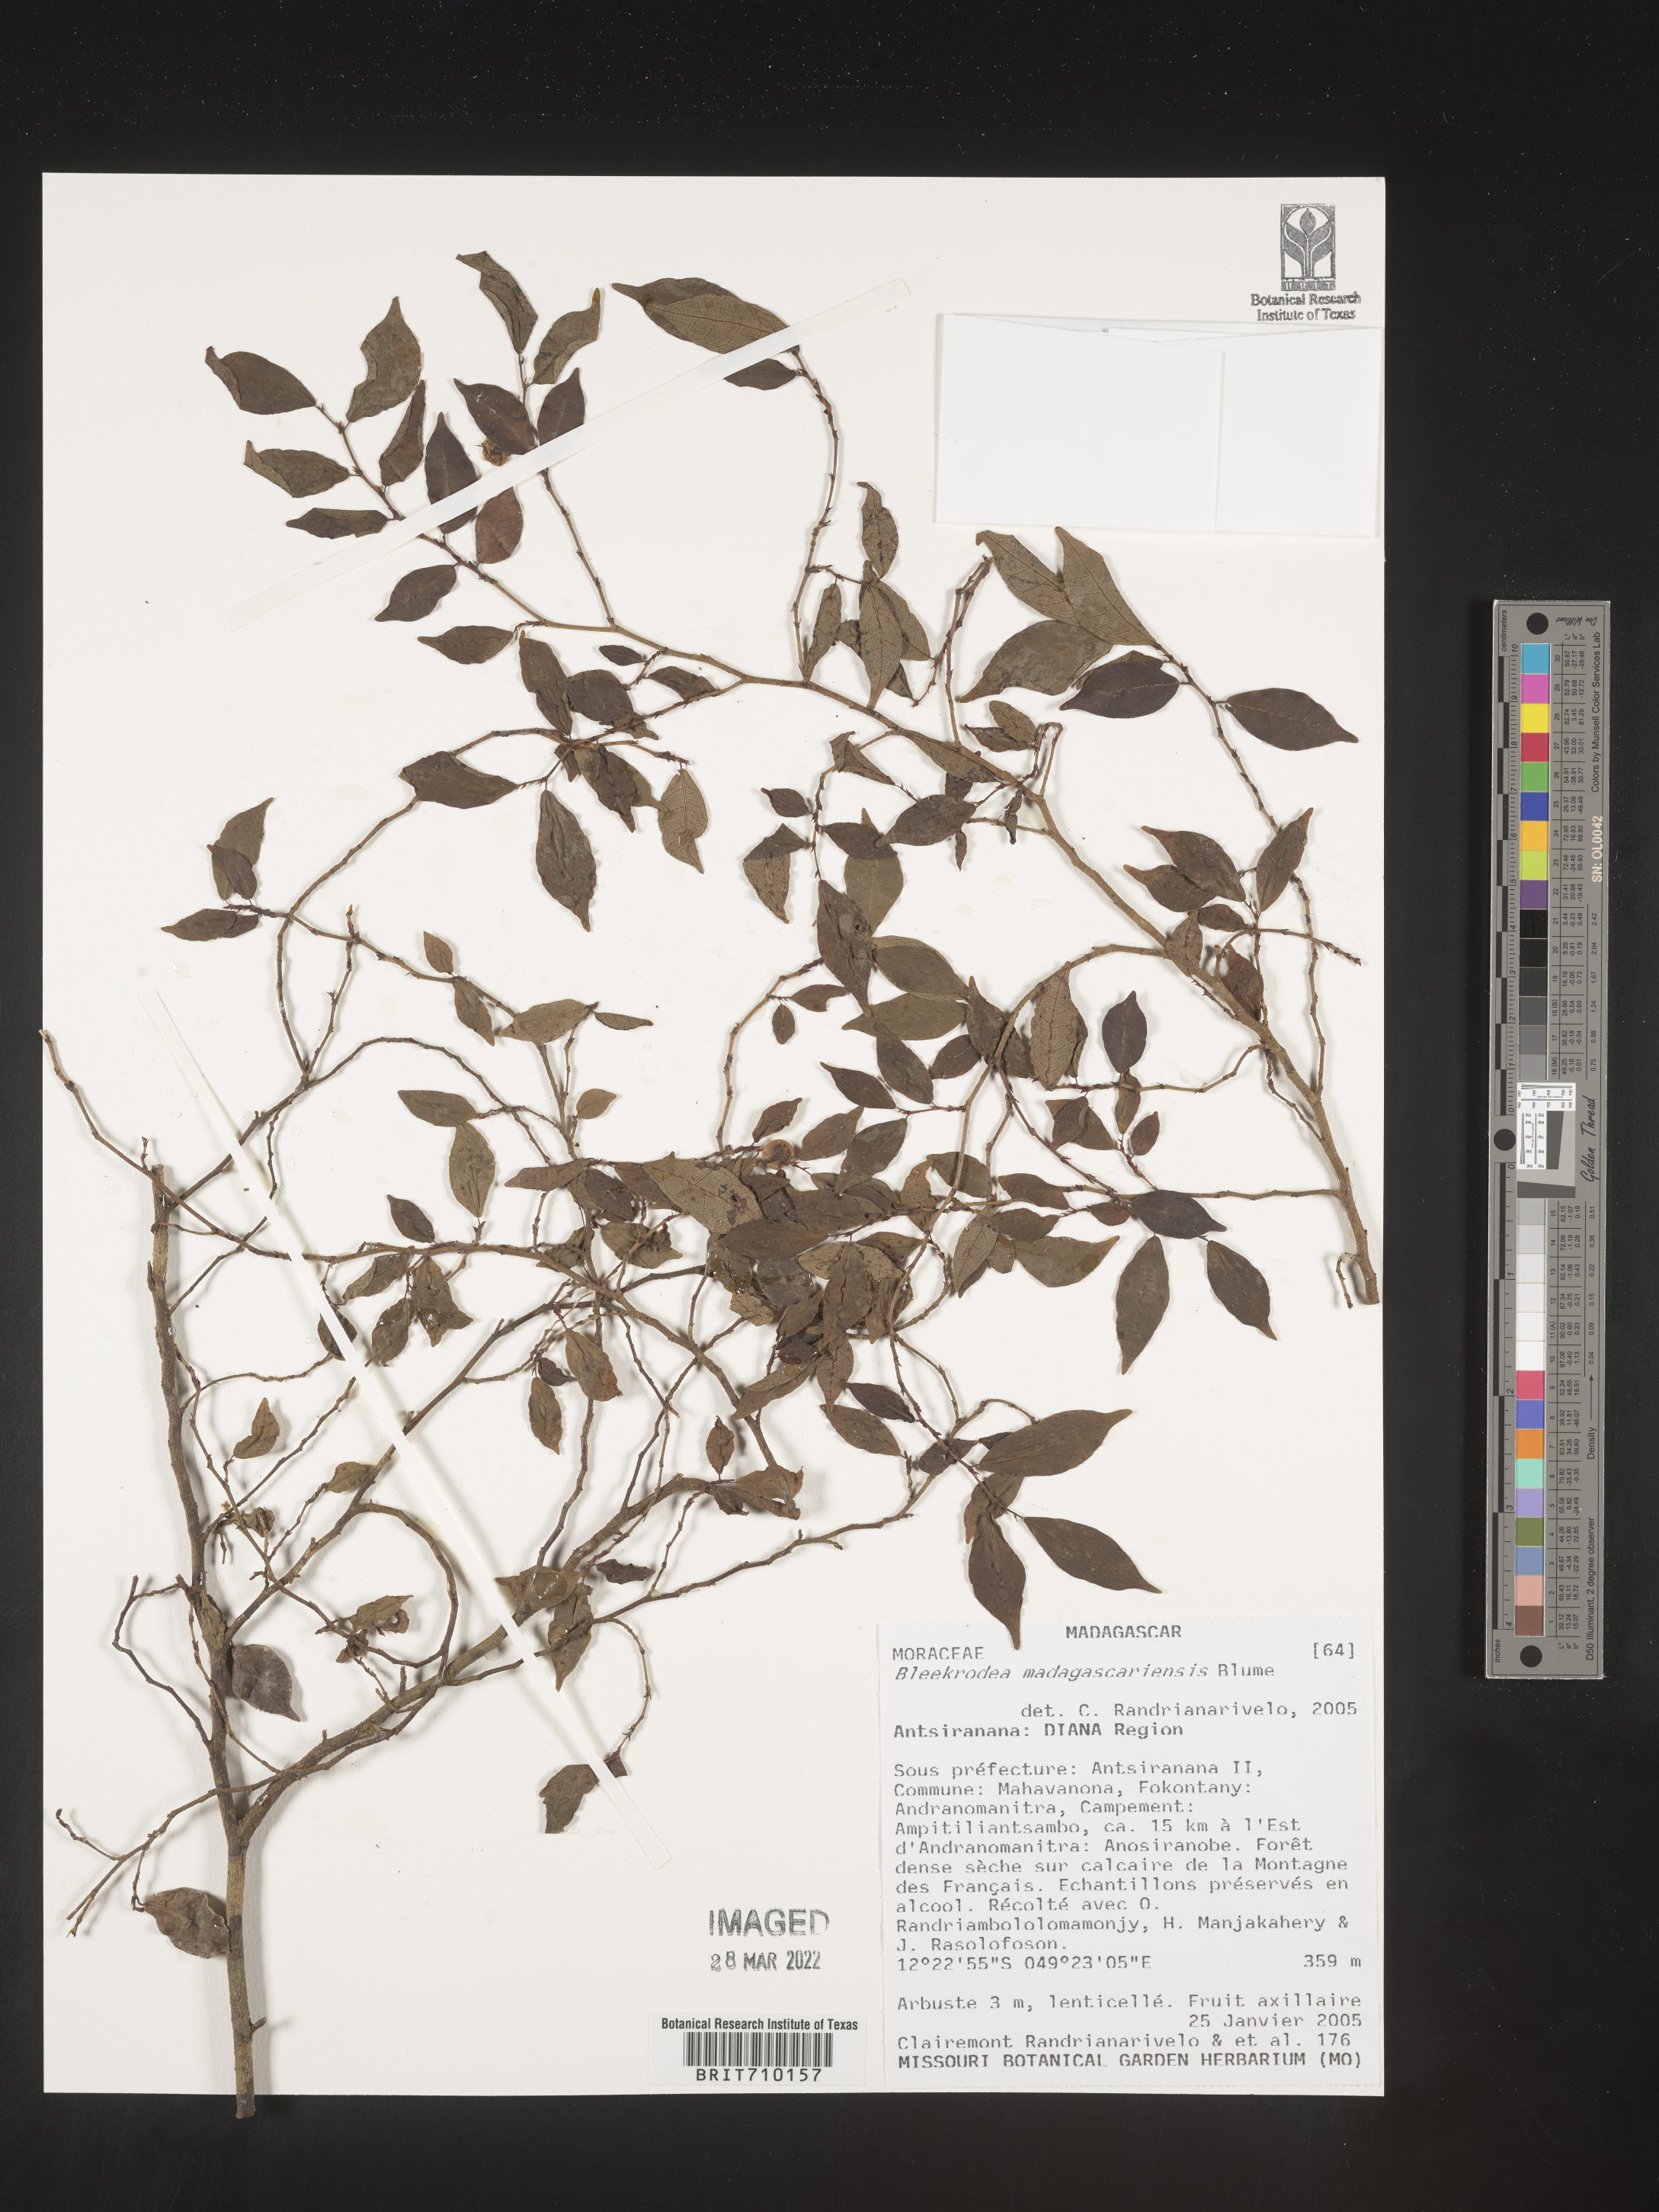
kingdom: Plantae
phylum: Tracheophyta
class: Magnoliopsida
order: Rosales
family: Moraceae
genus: Bleekrodea
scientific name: Bleekrodea
